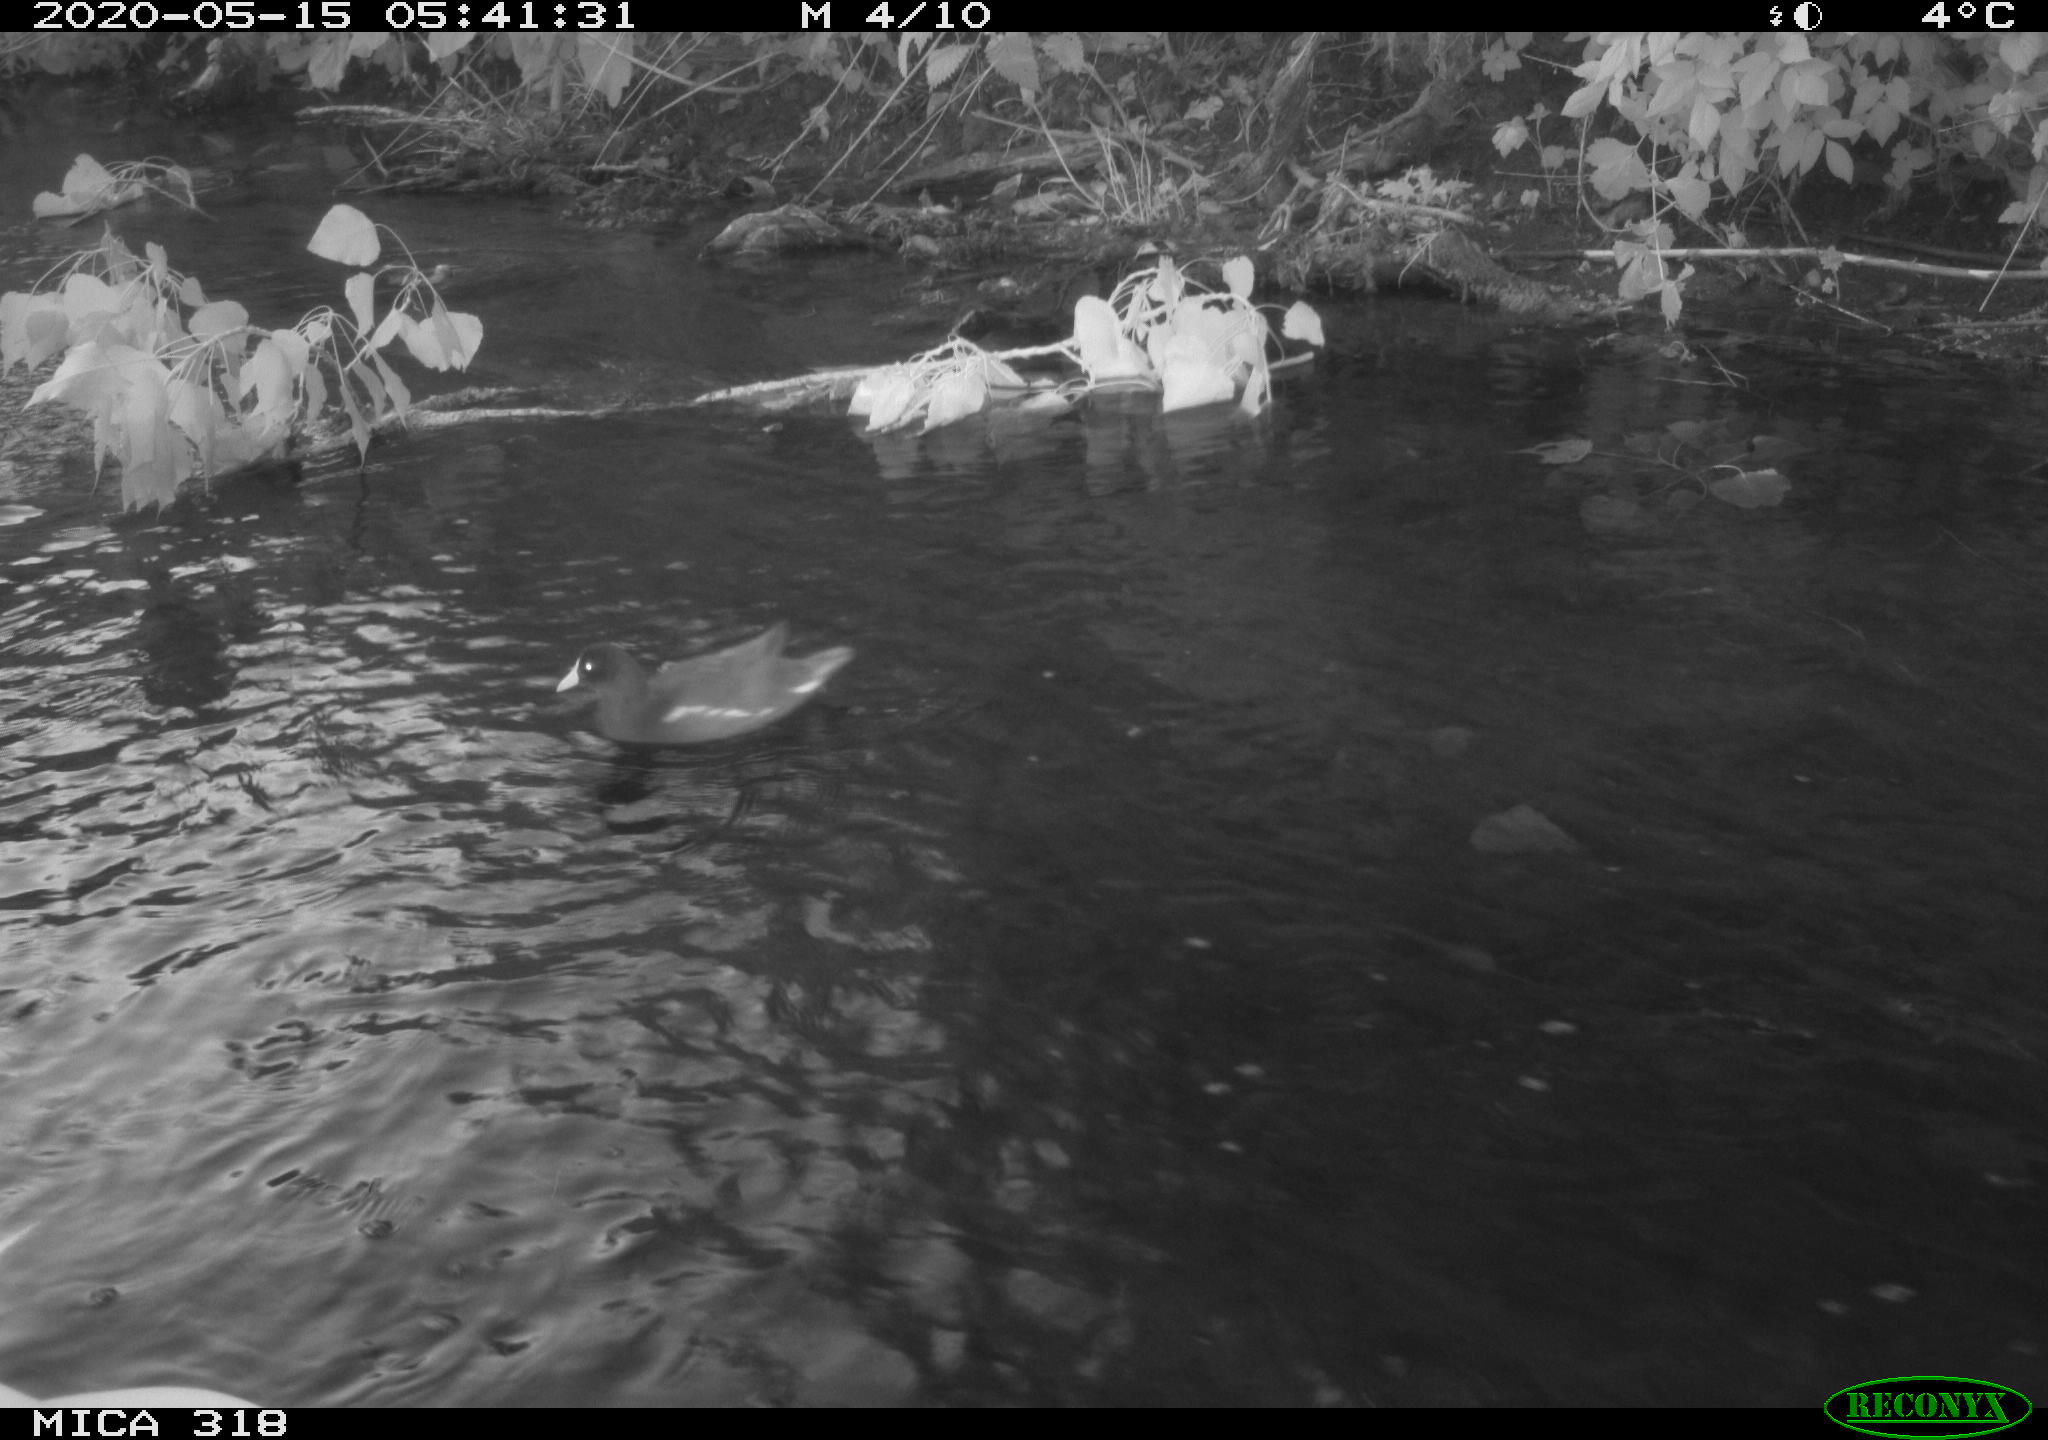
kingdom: Animalia
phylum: Chordata
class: Aves
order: Gruiformes
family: Rallidae
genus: Gallinula
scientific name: Gallinula chloropus
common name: Common moorhen
